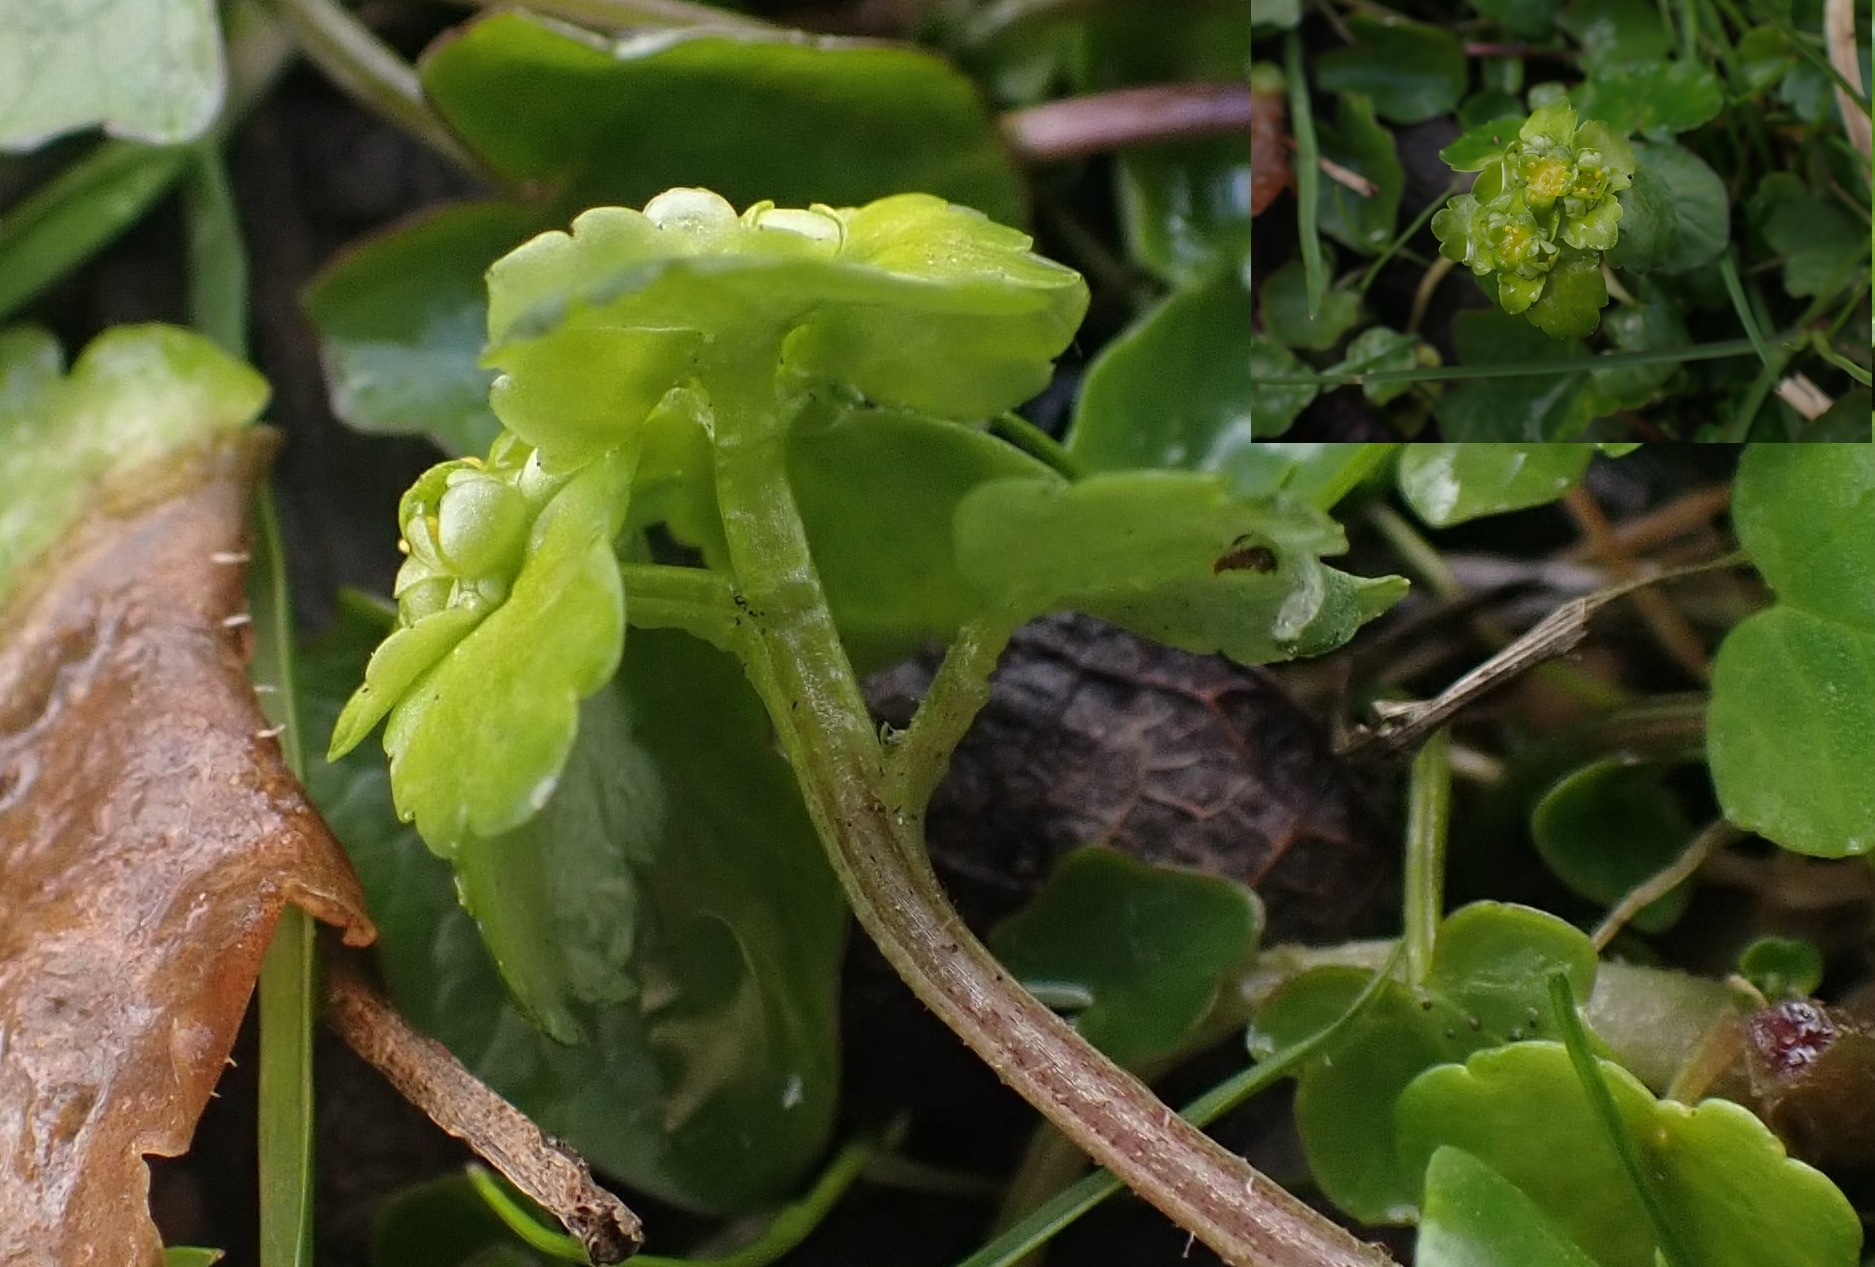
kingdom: Plantae
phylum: Tracheophyta
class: Magnoliopsida
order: Saxifragales
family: Saxifragaceae
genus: Chrysosplenium
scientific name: Chrysosplenium alternifolium
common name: Almindelig milturt
